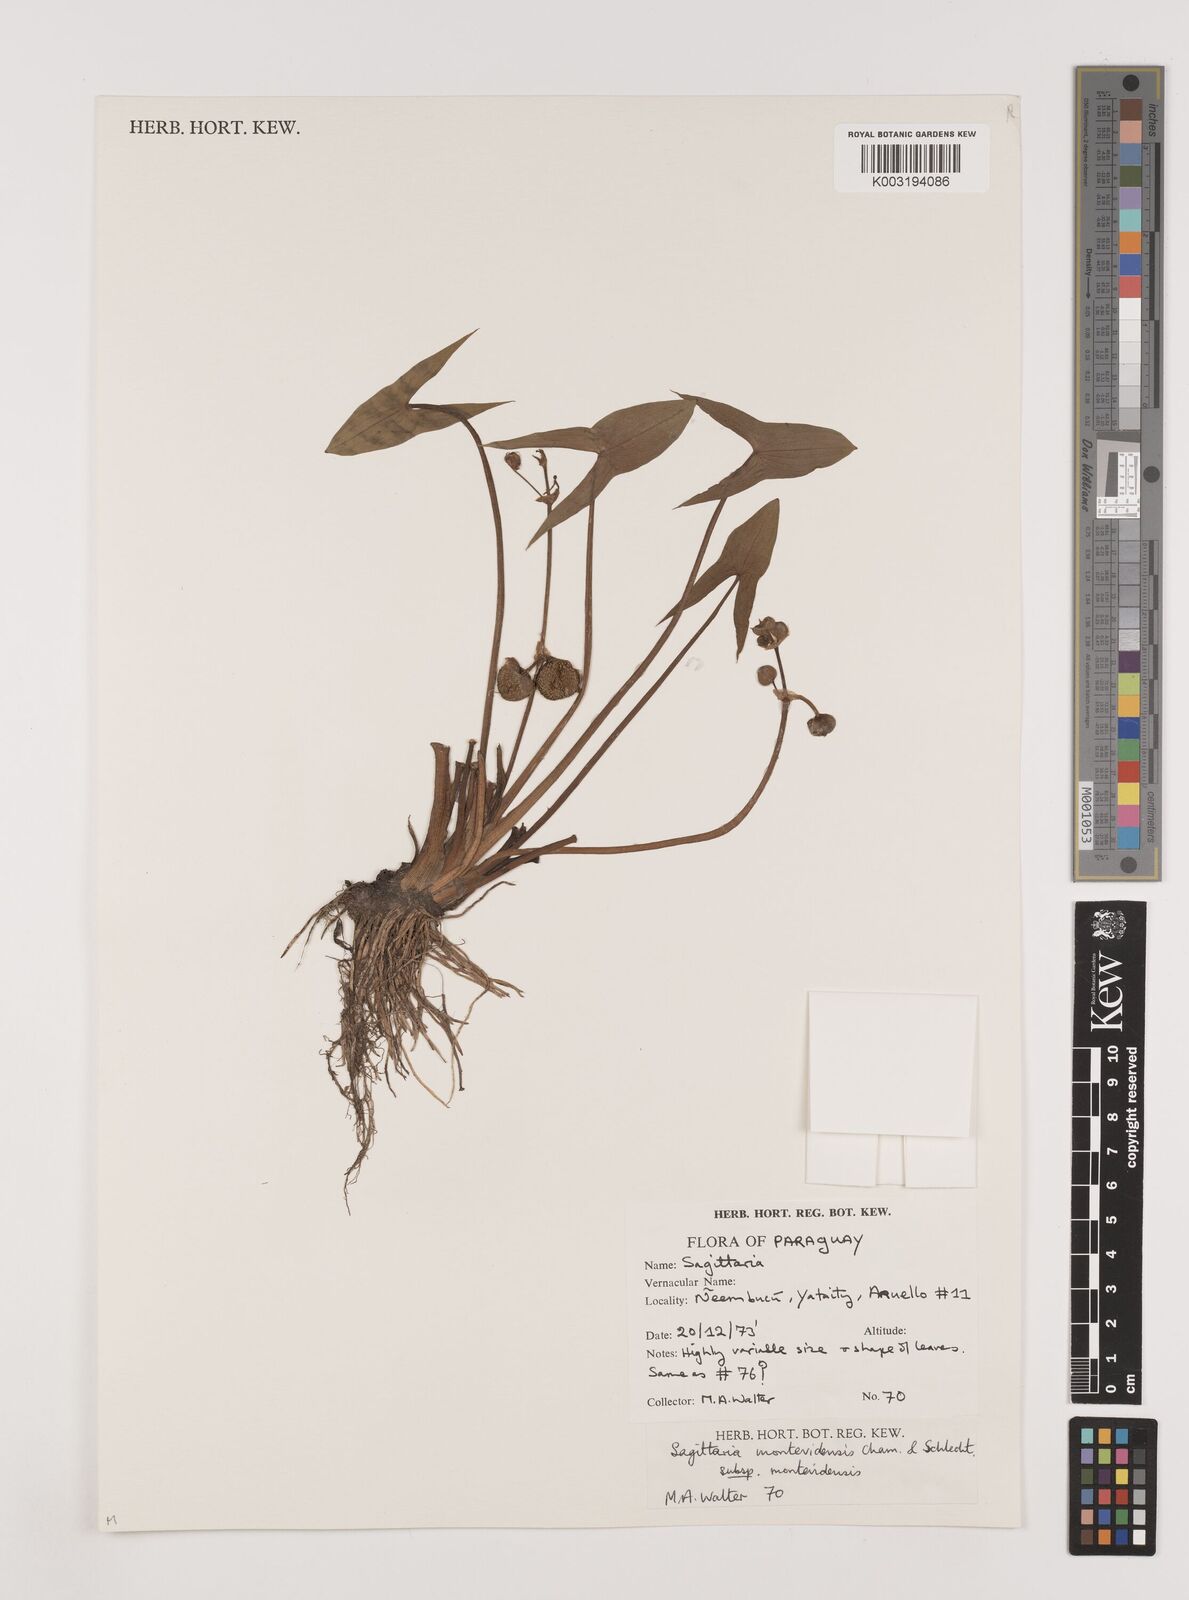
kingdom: Plantae
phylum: Tracheophyta
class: Liliopsida
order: Alismatales
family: Alismataceae
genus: Sagittaria
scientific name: Sagittaria montevidensis
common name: Giant arrowhead
